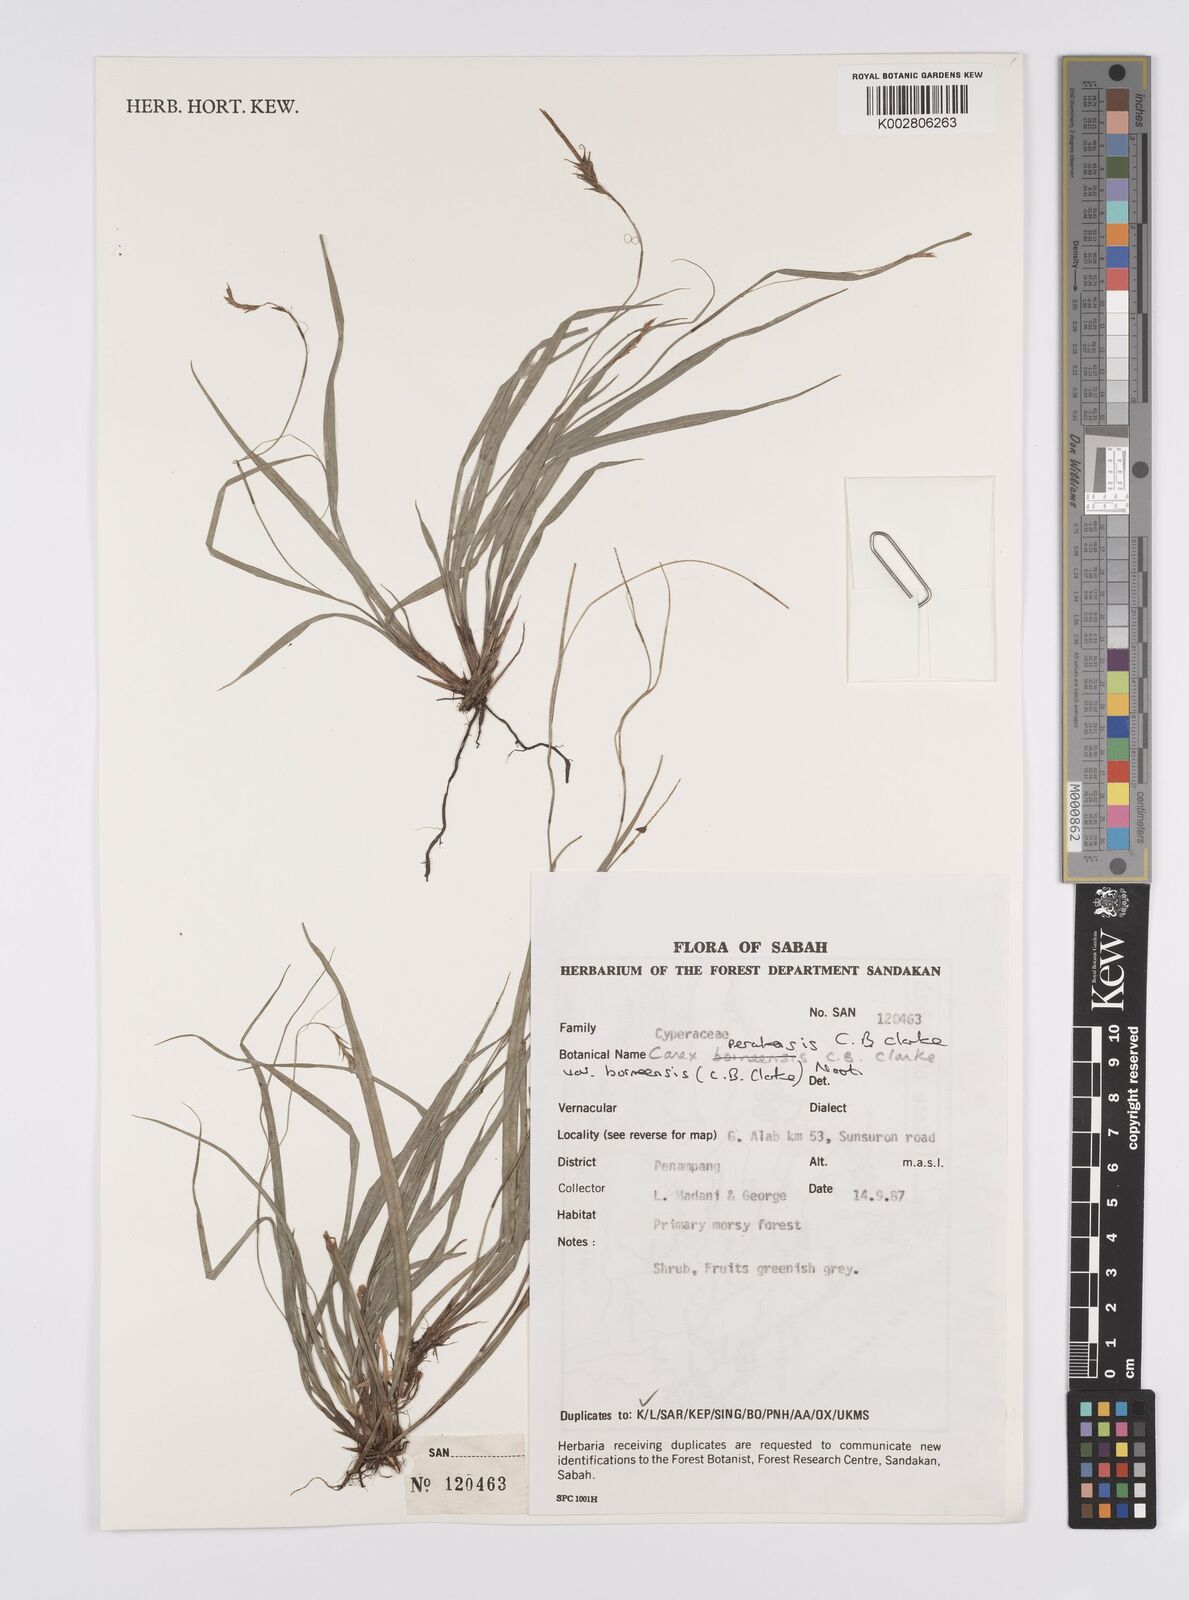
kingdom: Plantae
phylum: Tracheophyta
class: Liliopsida
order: Poales
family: Cyperaceae
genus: Carex
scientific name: Carex perakensis
